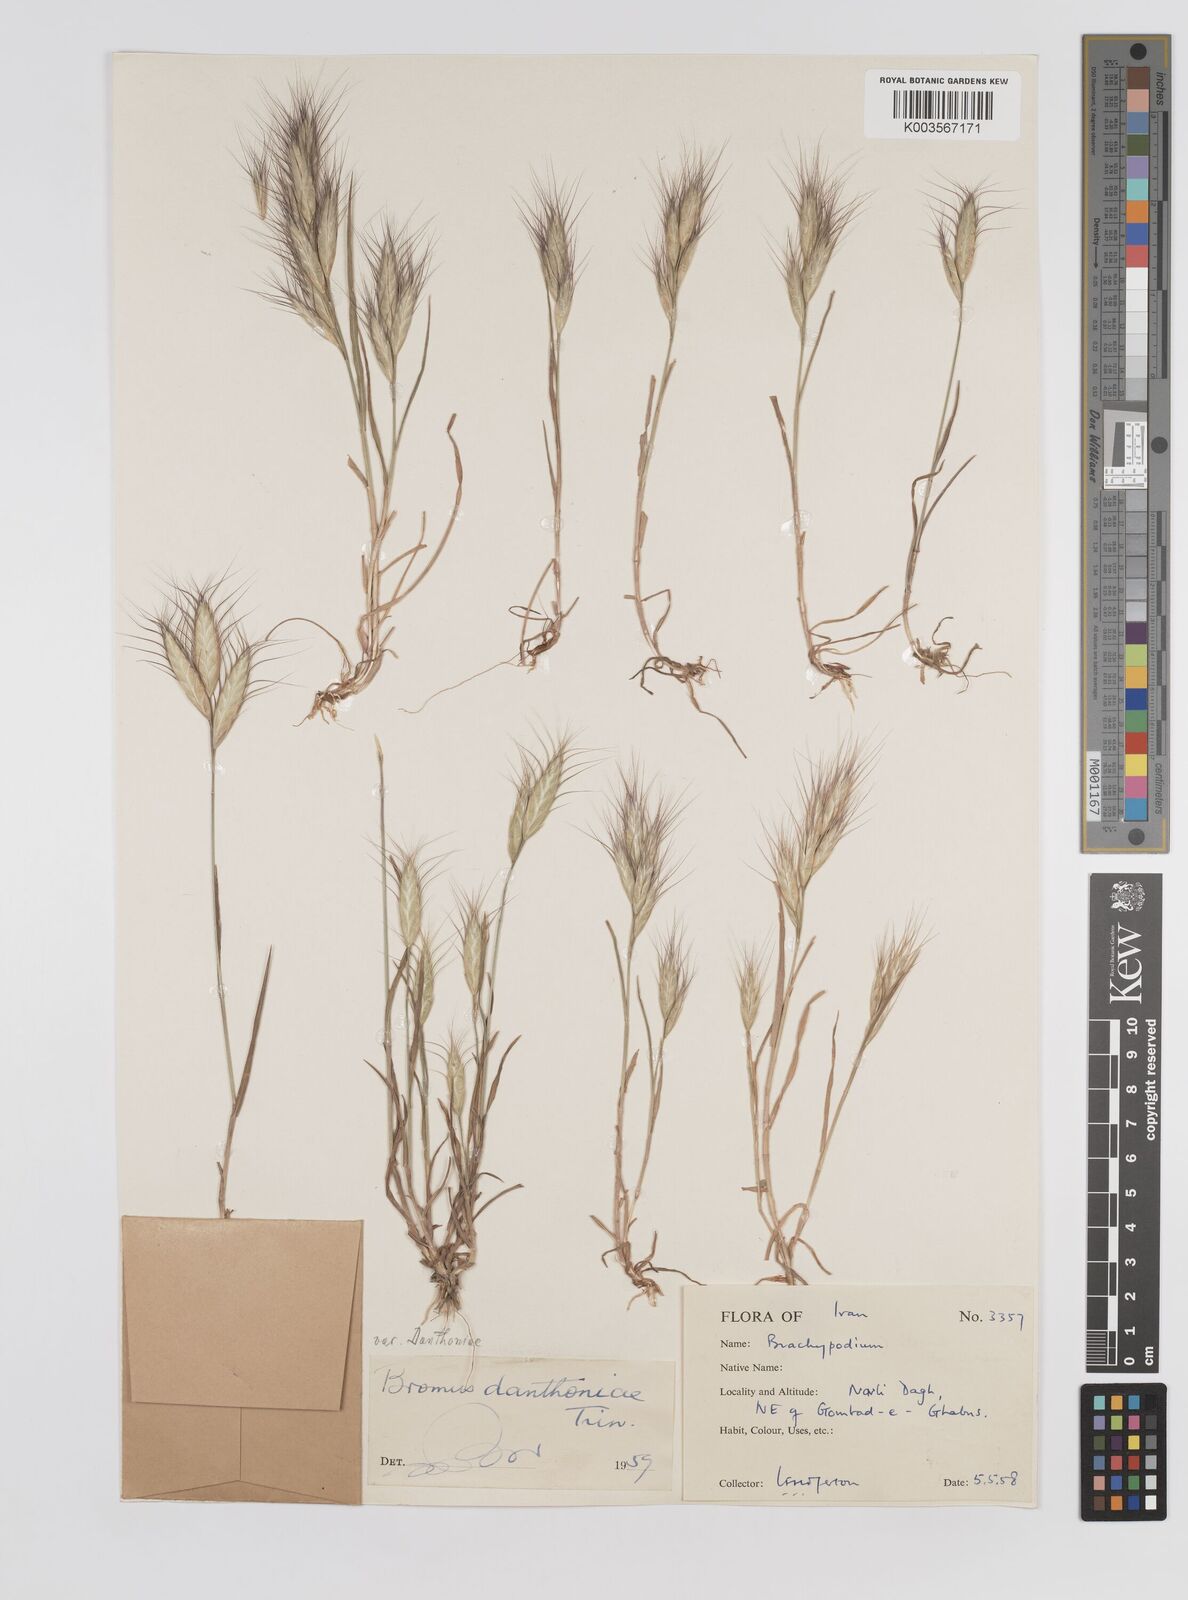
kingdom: Plantae
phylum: Tracheophyta
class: Liliopsida
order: Poales
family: Poaceae
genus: Bromus
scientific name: Bromus danthoniae
